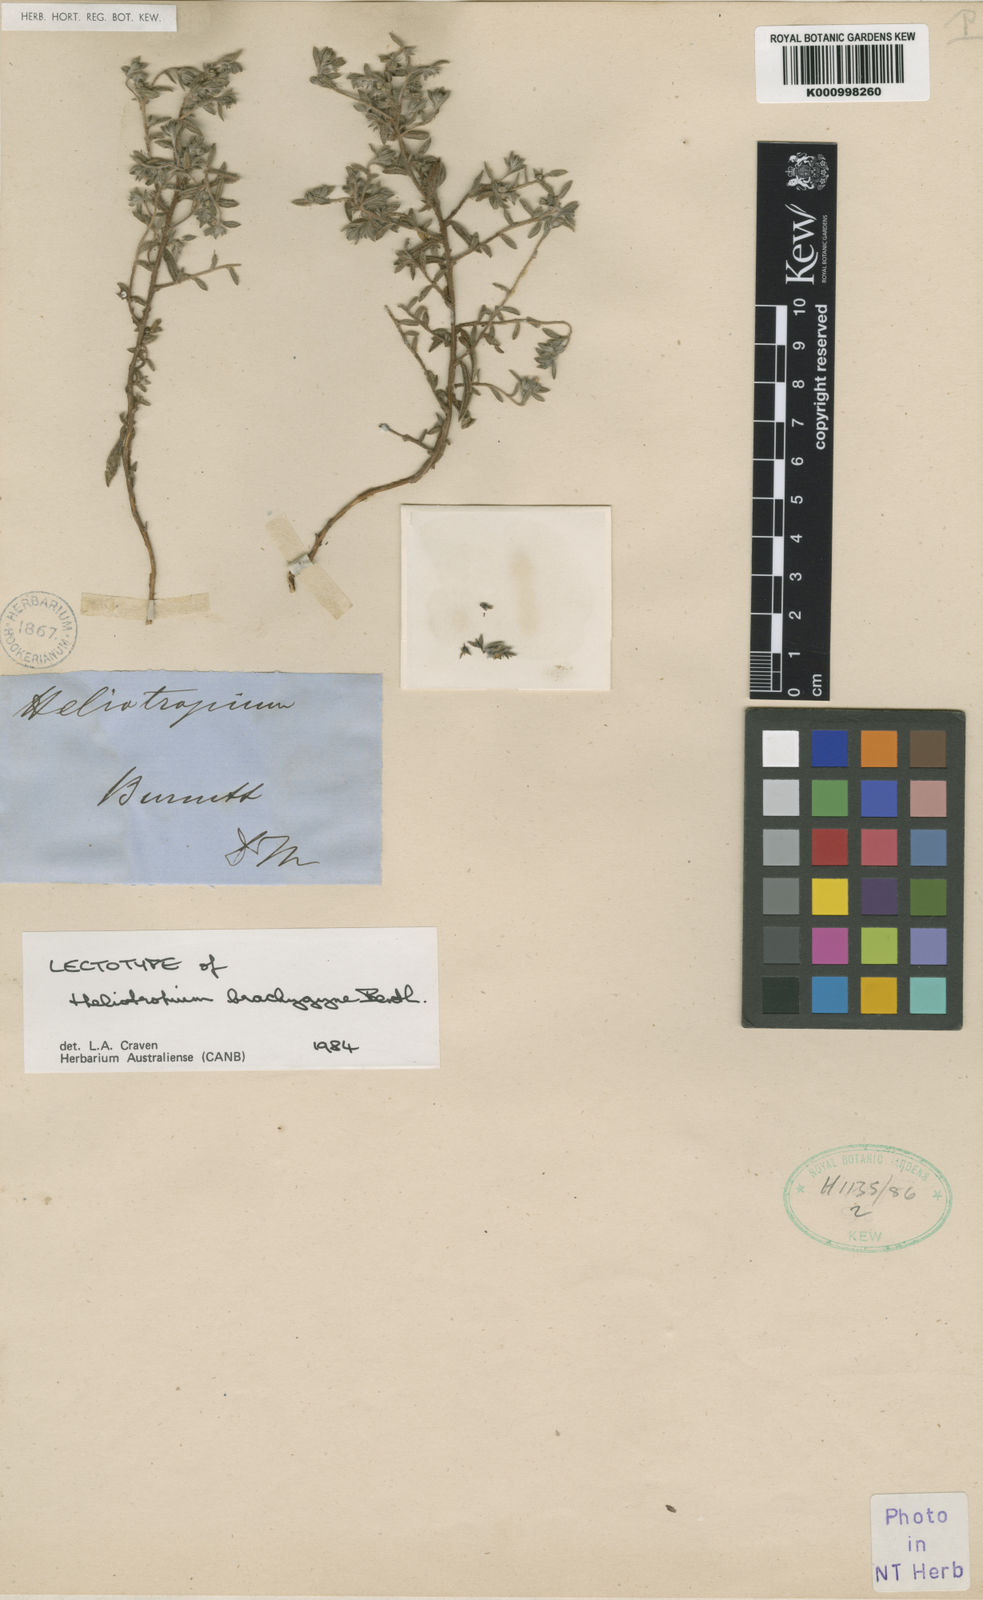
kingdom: Plantae
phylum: Tracheophyta
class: Magnoliopsida
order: Boraginales
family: Heliotropiaceae
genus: Euploca
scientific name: Euploca brachygyne
